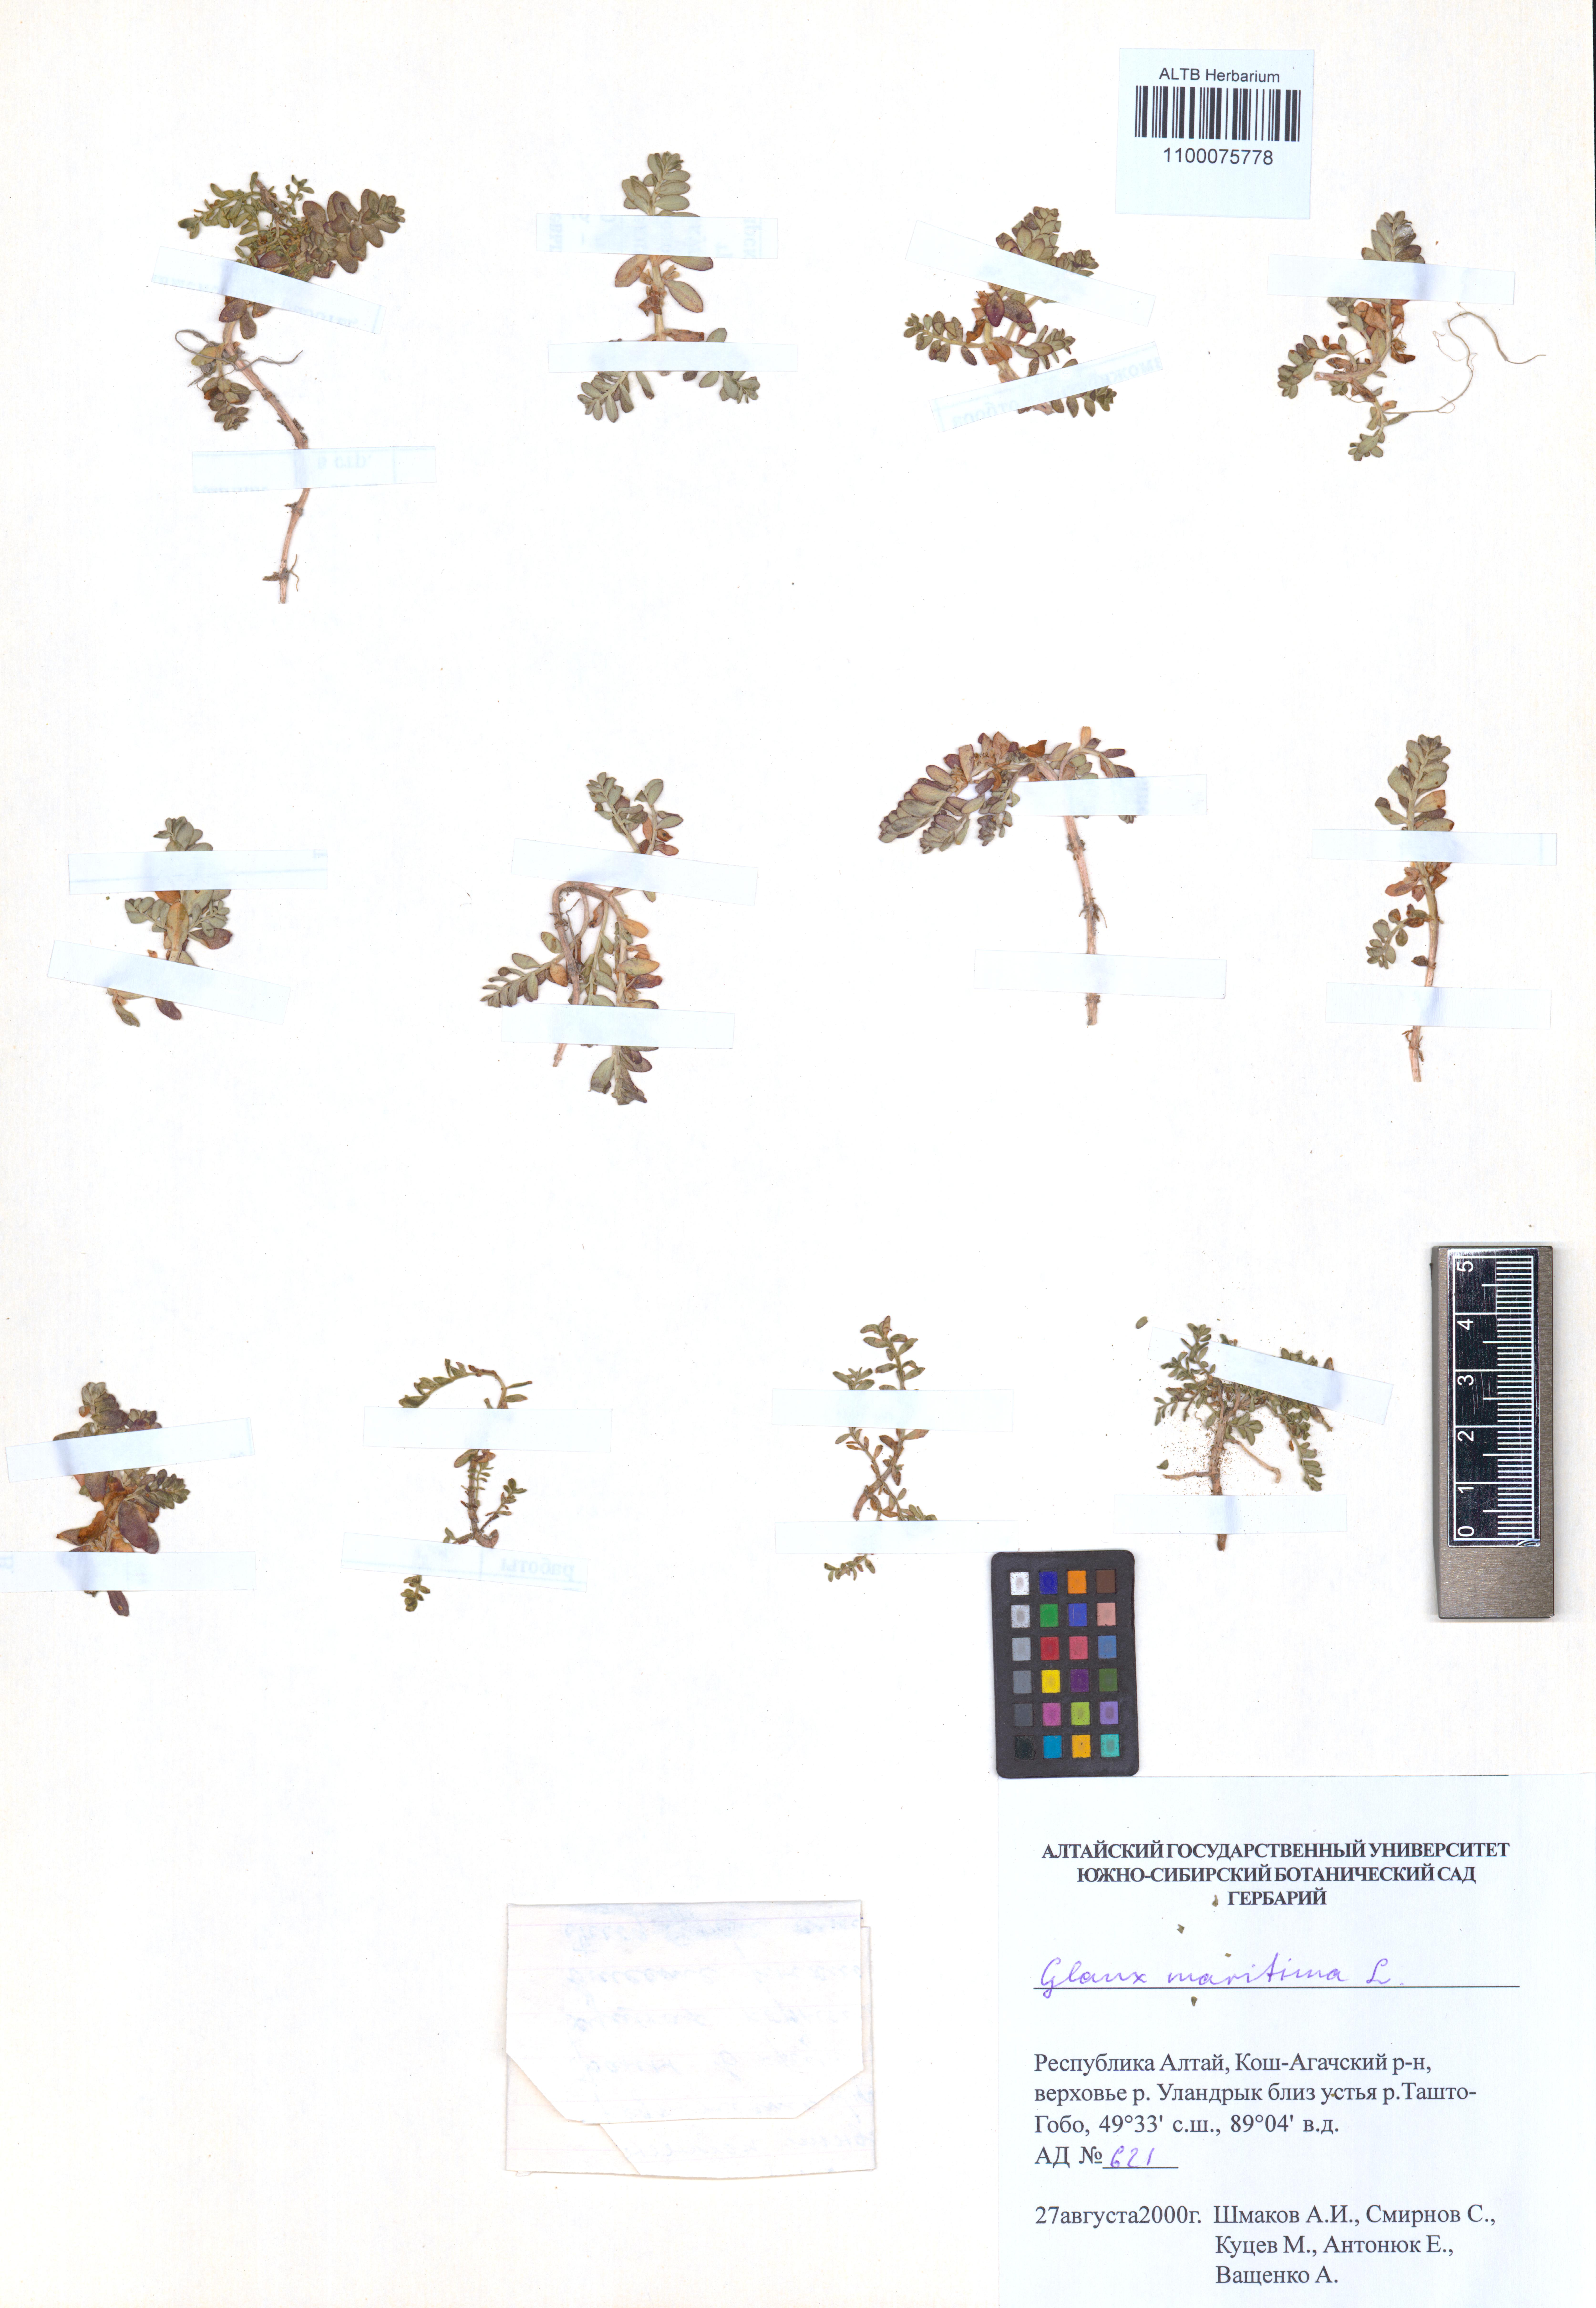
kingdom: Plantae
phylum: Tracheophyta
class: Magnoliopsida
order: Ericales
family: Primulaceae
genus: Lysimachia
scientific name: Lysimachia maritima
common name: Sea milkwort
